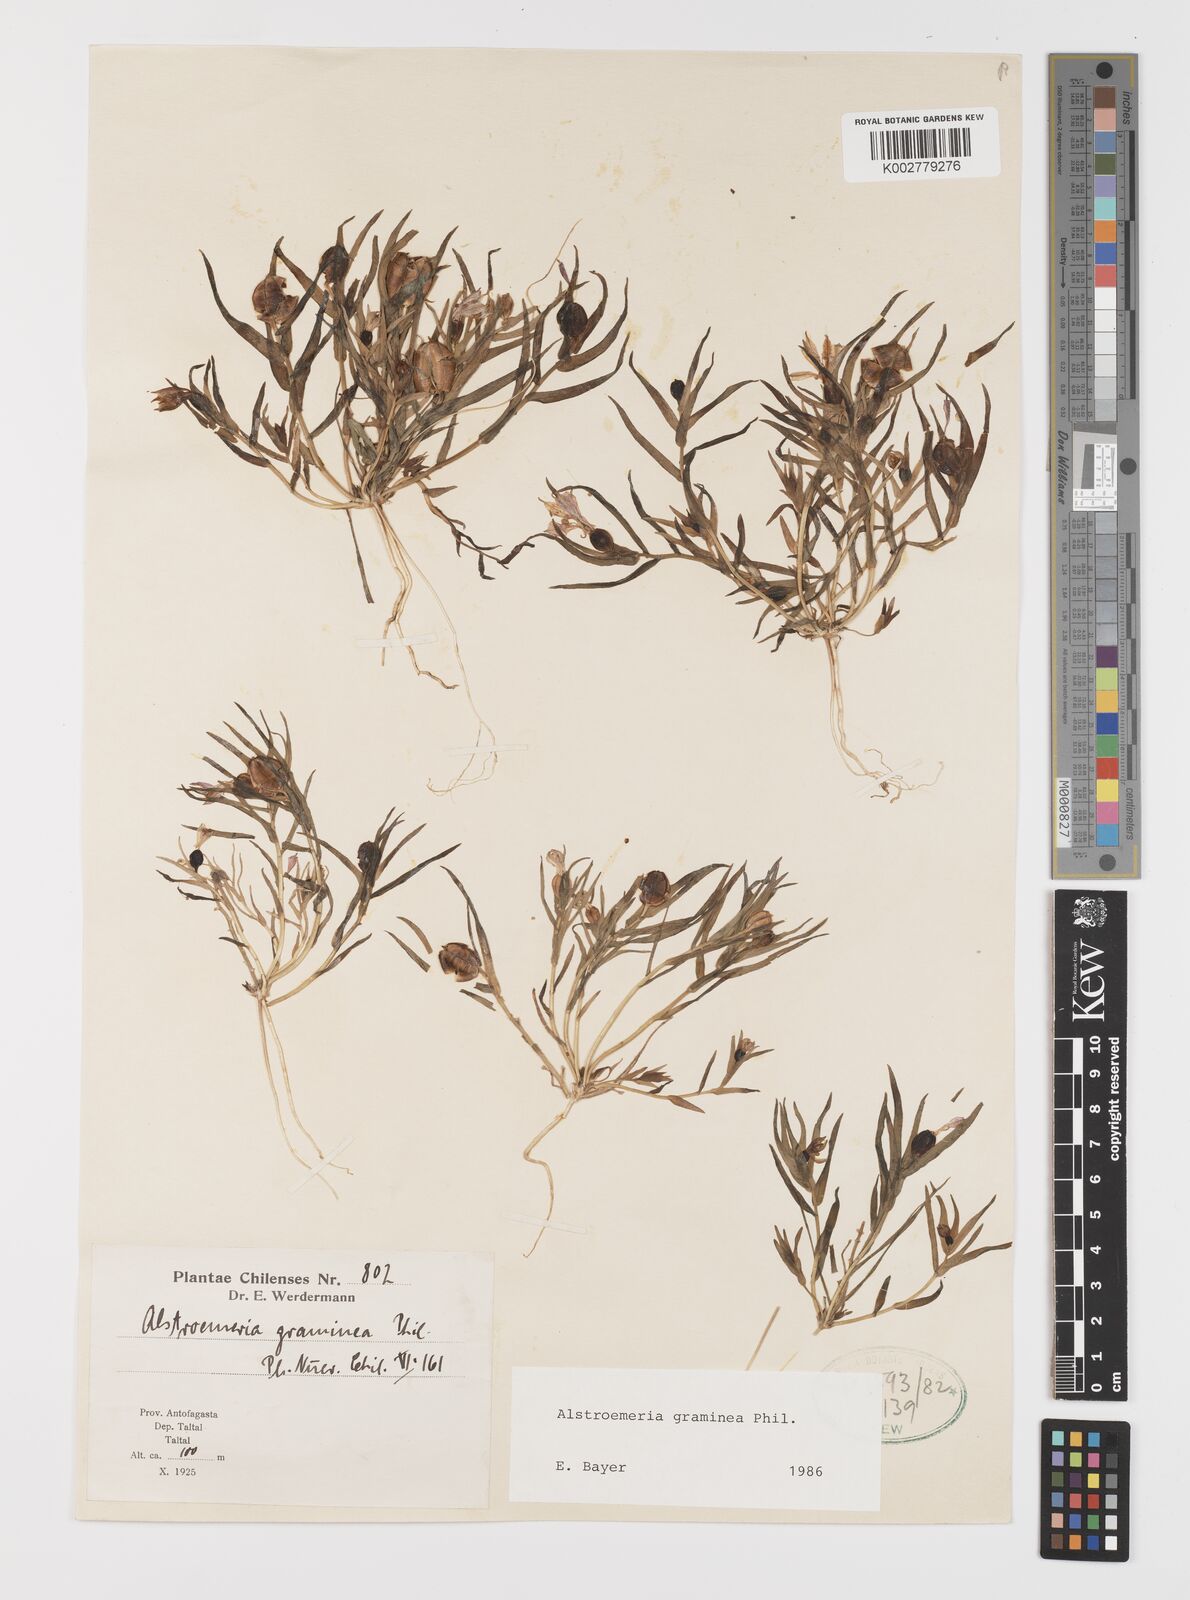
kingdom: Plantae
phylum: Tracheophyta
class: Liliopsida
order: Liliales
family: Alstroemeriaceae
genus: Alstroemeria
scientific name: Alstroemeria graminea
